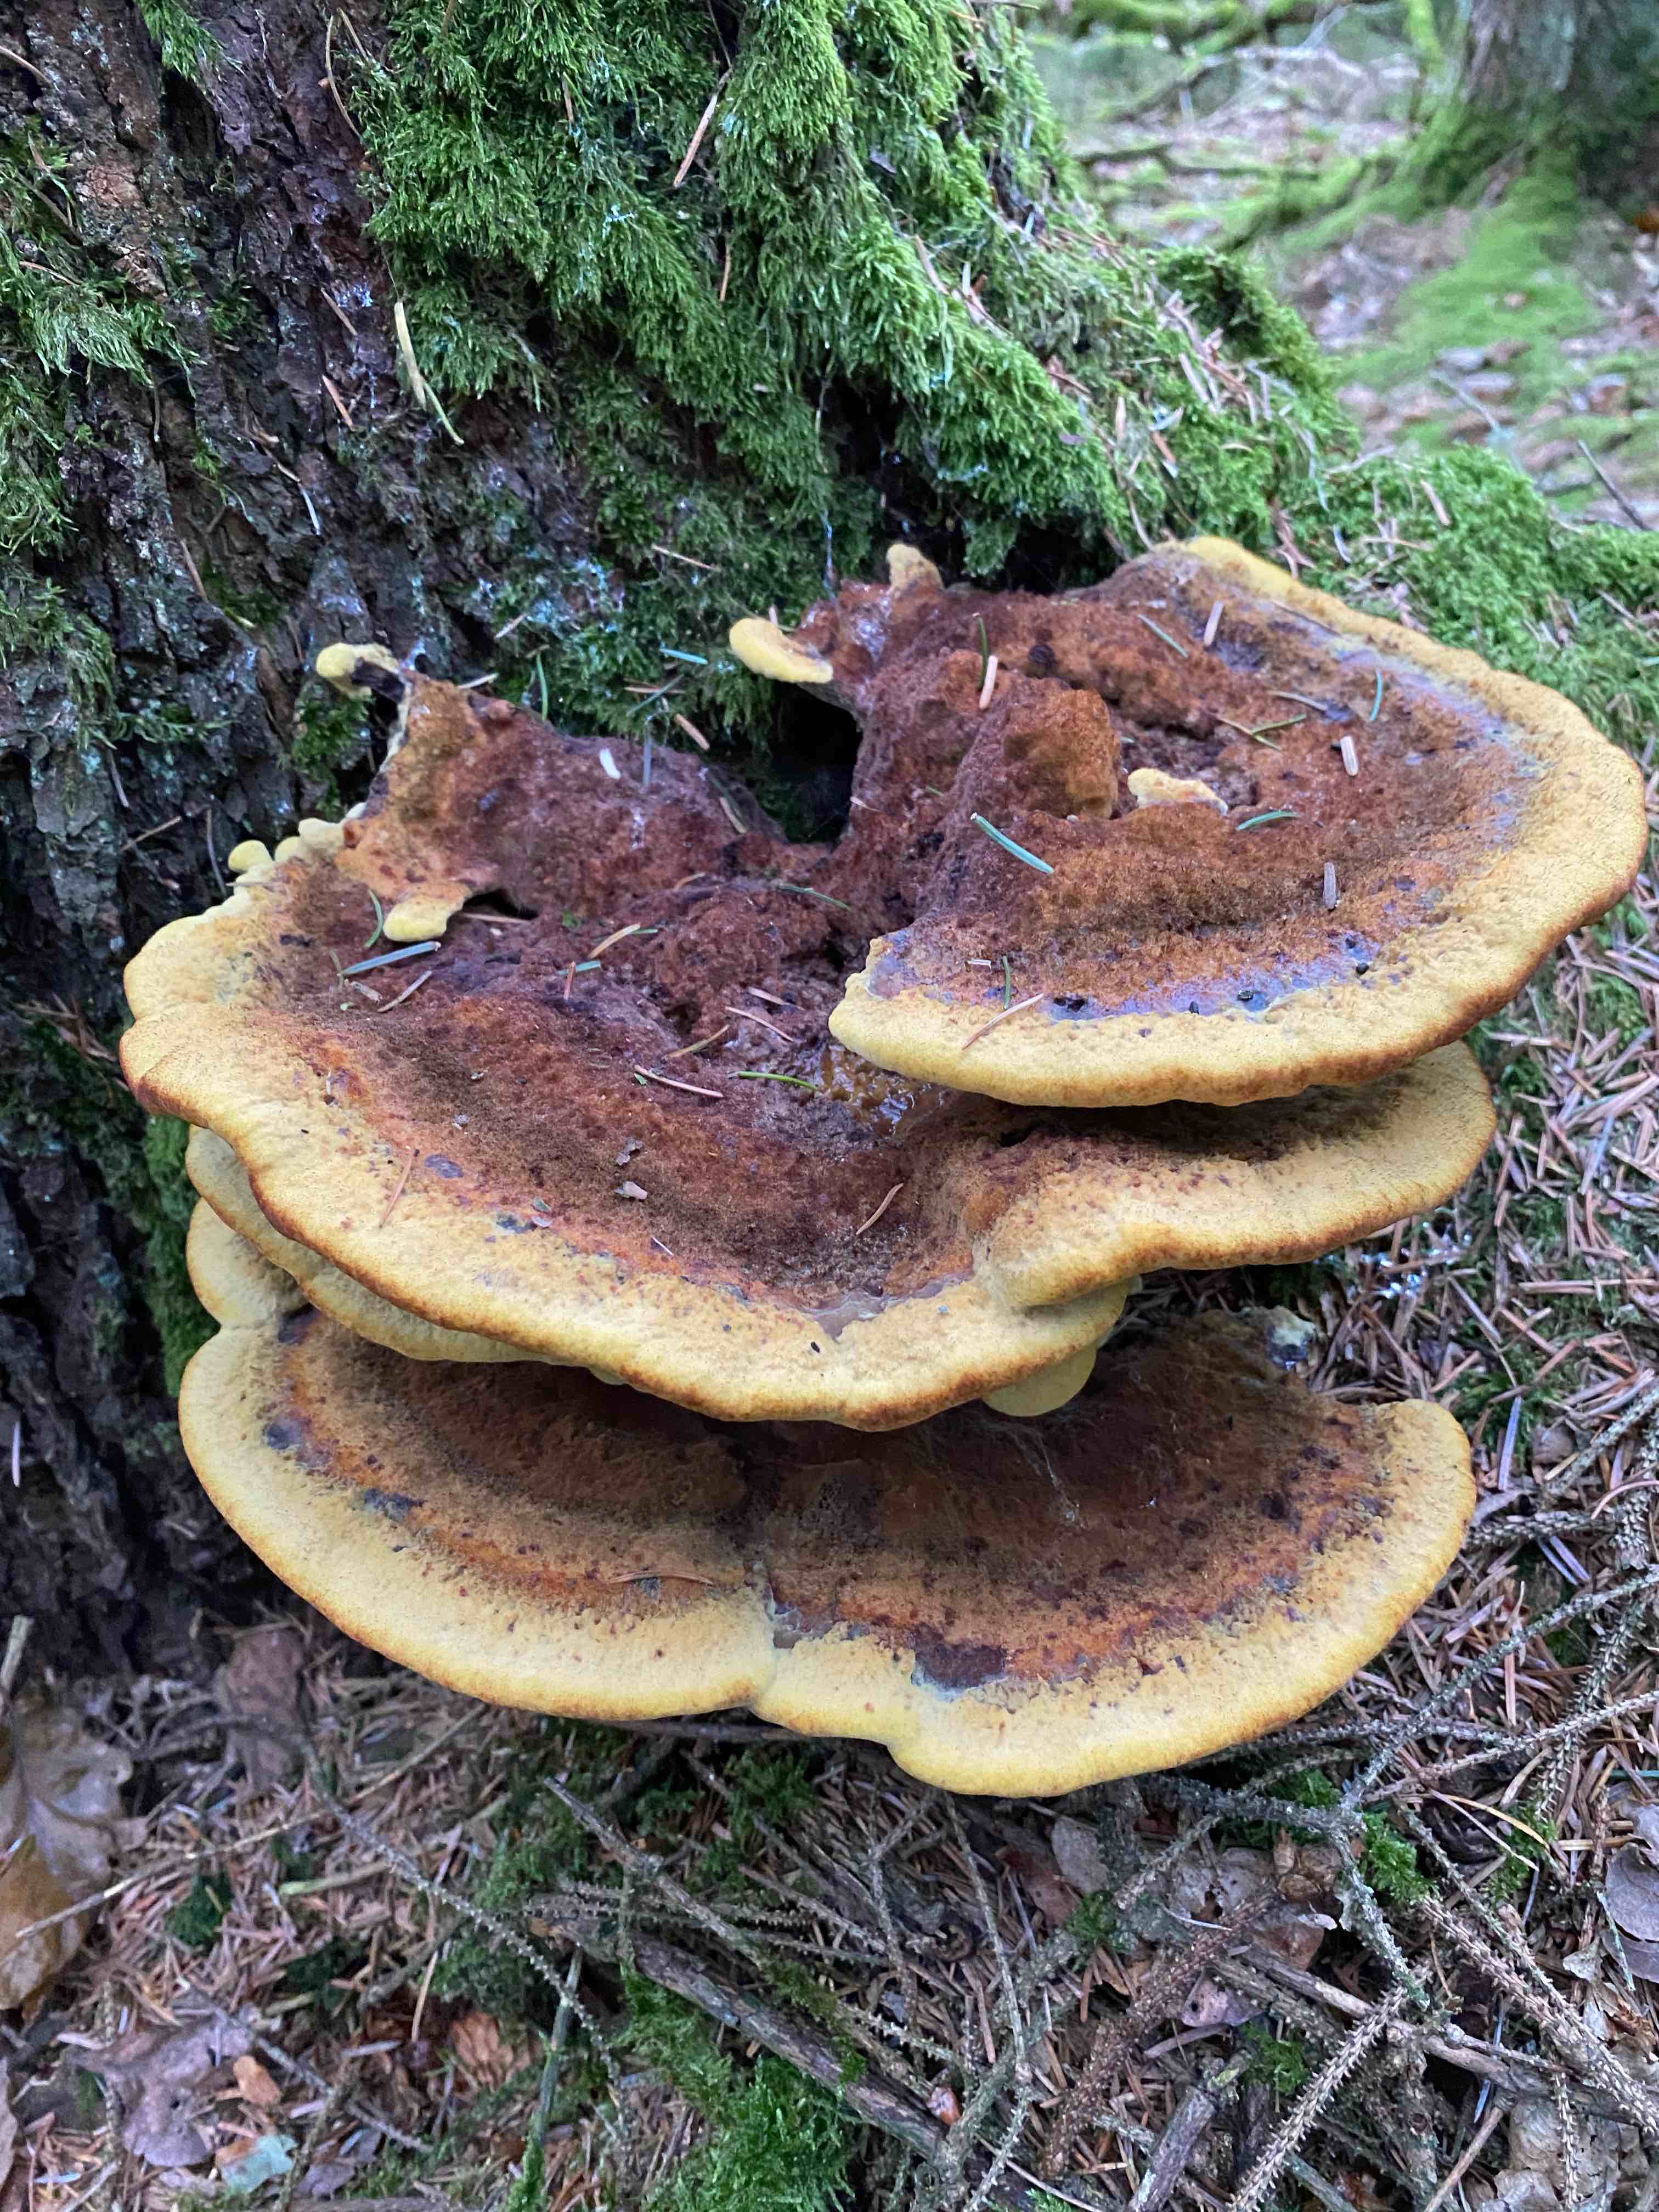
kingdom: Fungi
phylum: Basidiomycota
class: Agaricomycetes
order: Polyporales
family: Laetiporaceae
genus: Phaeolus
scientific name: Phaeolus schweinitzii
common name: brunporesvamp
